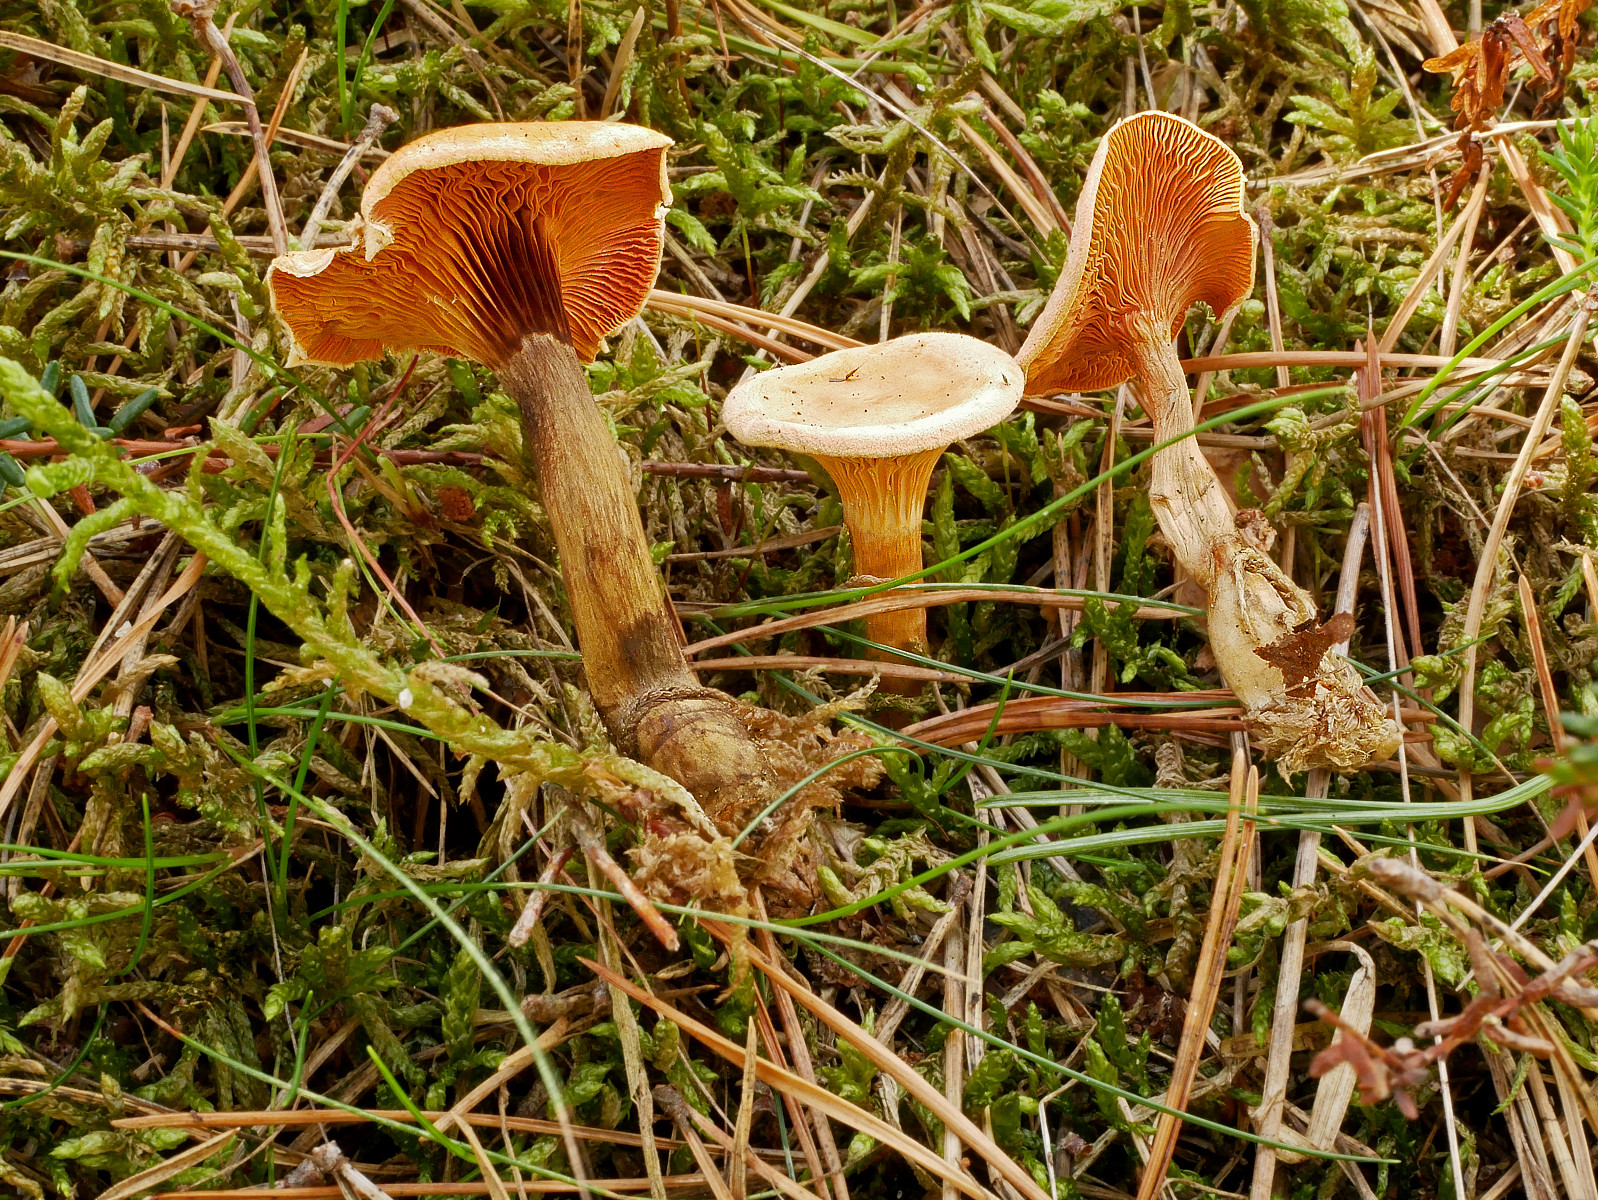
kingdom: Fungi
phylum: Basidiomycota
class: Agaricomycetes
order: Boletales
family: Hygrophoropsidaceae
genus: Hygrophoropsis
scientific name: Hygrophoropsis aurantiaca
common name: almindelig orangekantarel
